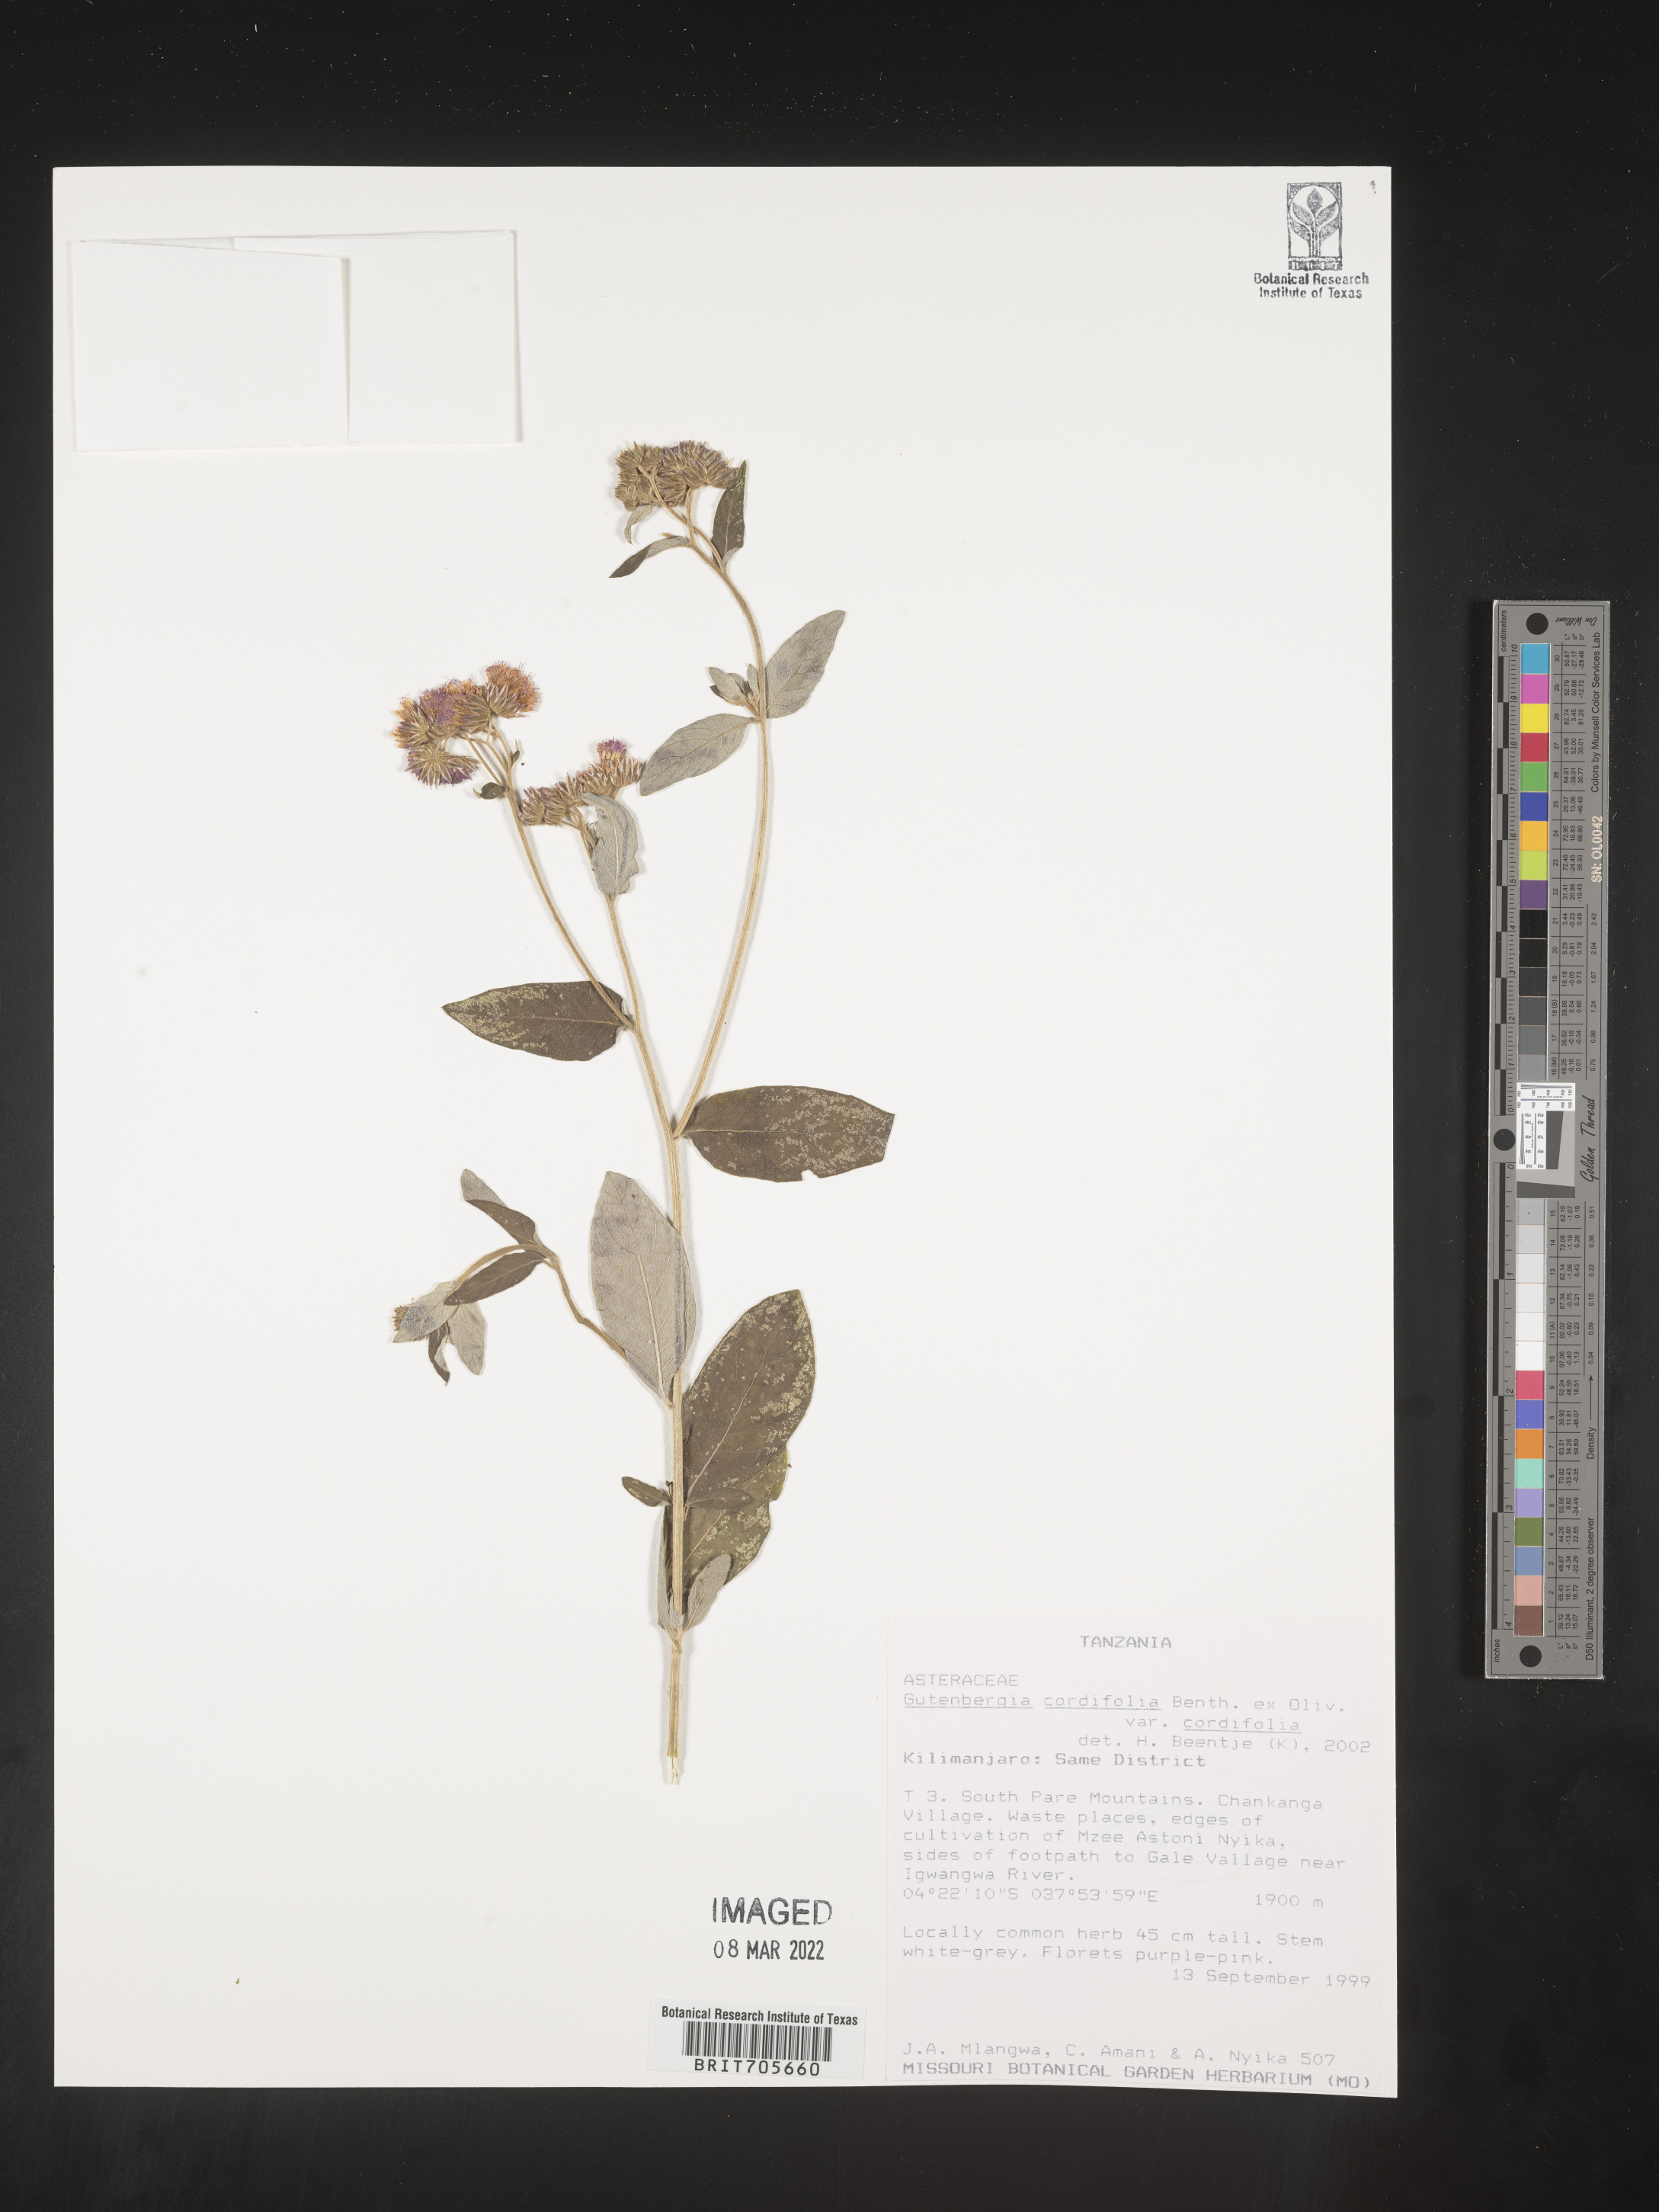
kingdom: Plantae
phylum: Tracheophyta
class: Magnoliopsida
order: Asterales
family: Asteraceae
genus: Gutenbergia
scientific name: Gutenbergia
